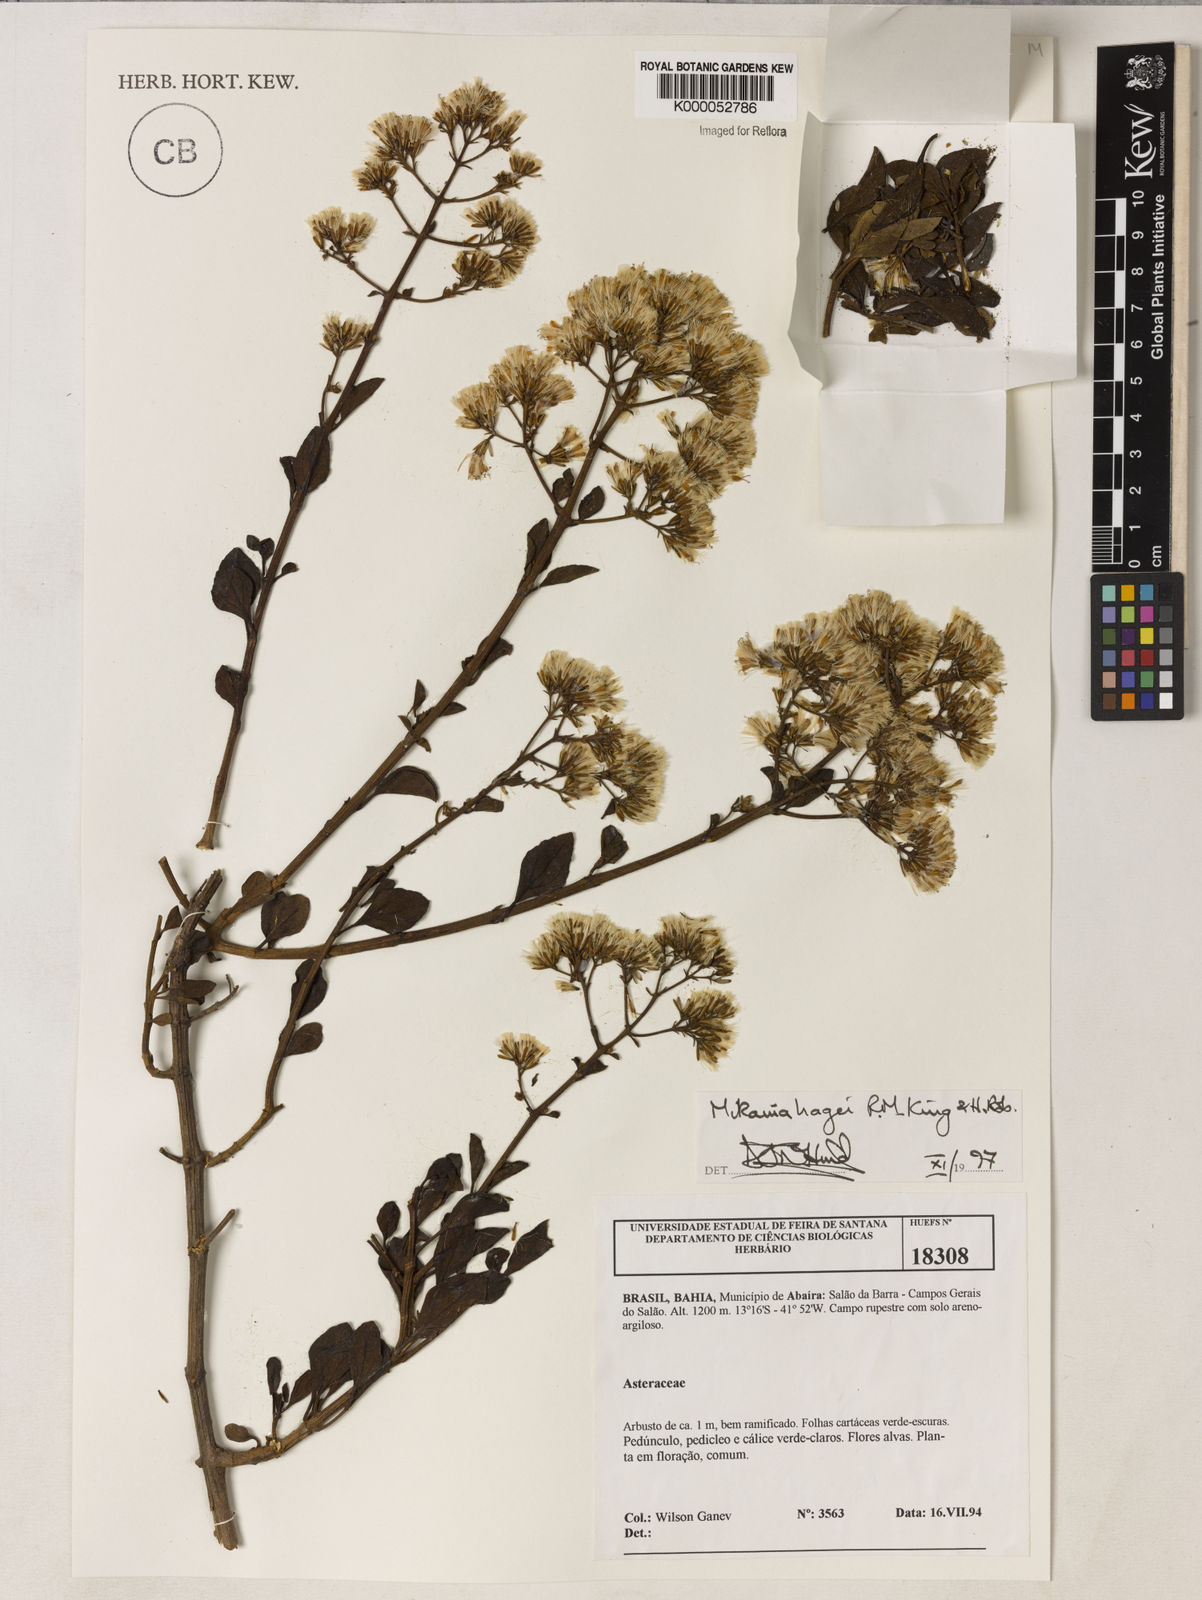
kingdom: Plantae
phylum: Tracheophyta
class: Magnoliopsida
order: Asterales
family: Asteraceae
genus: Mikania
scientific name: Mikania hagei
